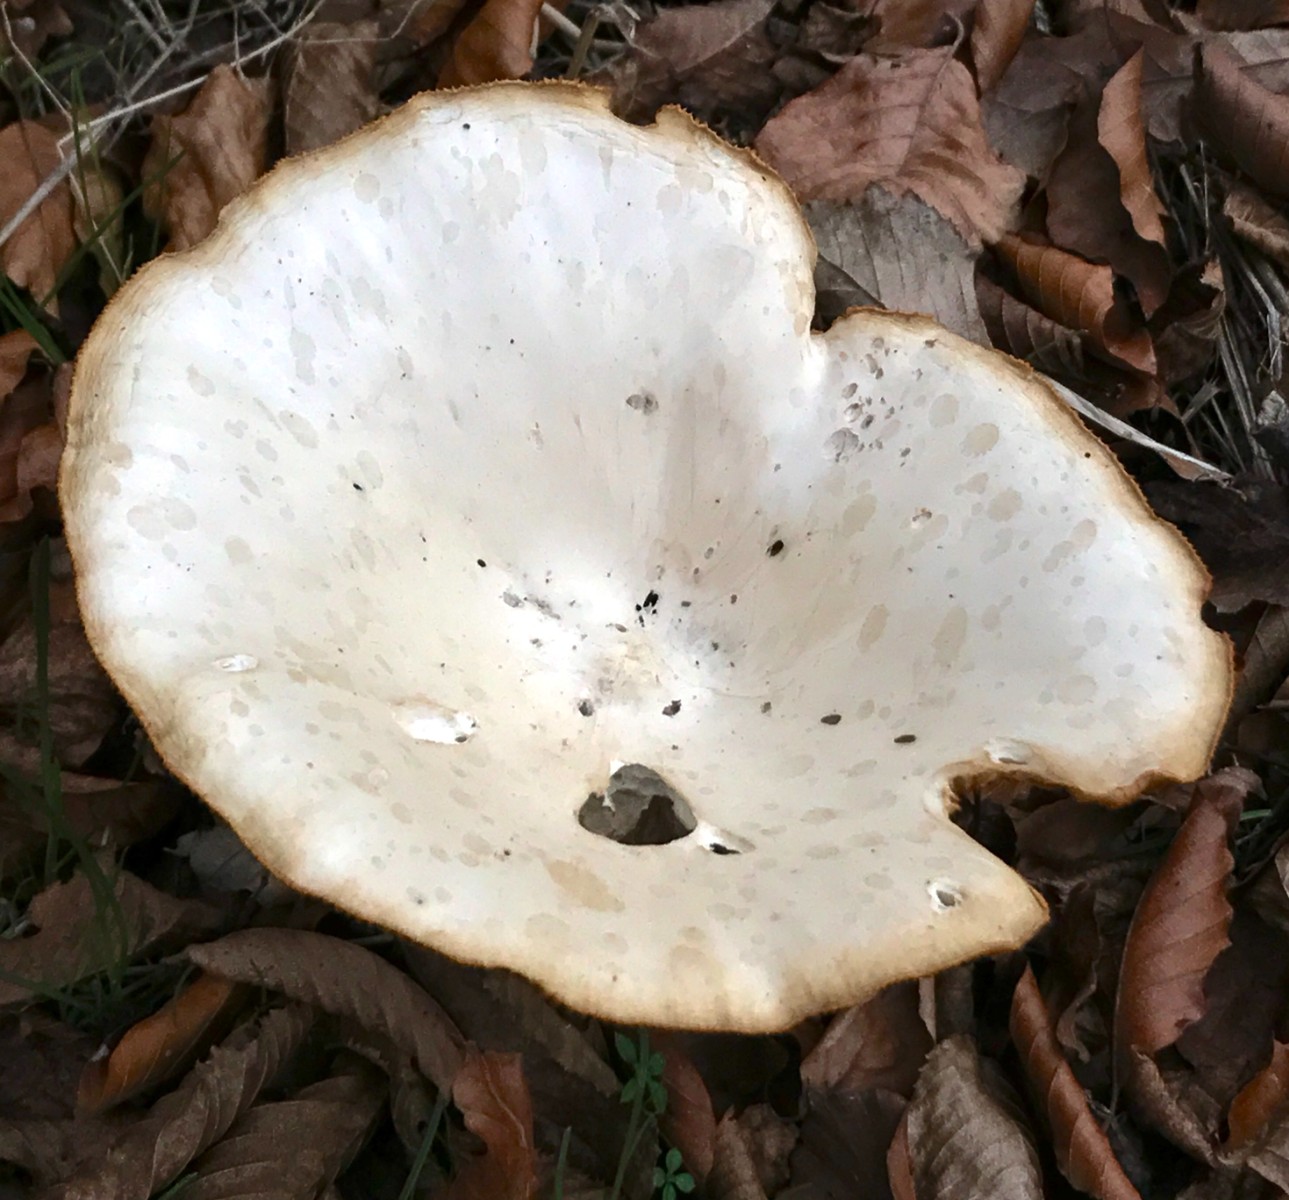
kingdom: Fungi
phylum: Basidiomycota
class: Agaricomycetes
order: Agaricales
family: Tricholomataceae
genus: Infundibulicybe
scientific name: Infundibulicybe geotropa
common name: stor tragthat
